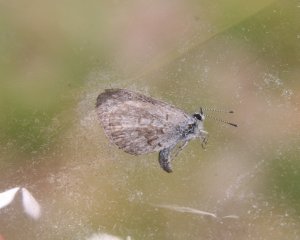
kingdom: Animalia
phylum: Arthropoda
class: Insecta
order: Lepidoptera
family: Lycaenidae
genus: Celastrina
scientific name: Celastrina serotina
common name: Cherry Gall Azure
